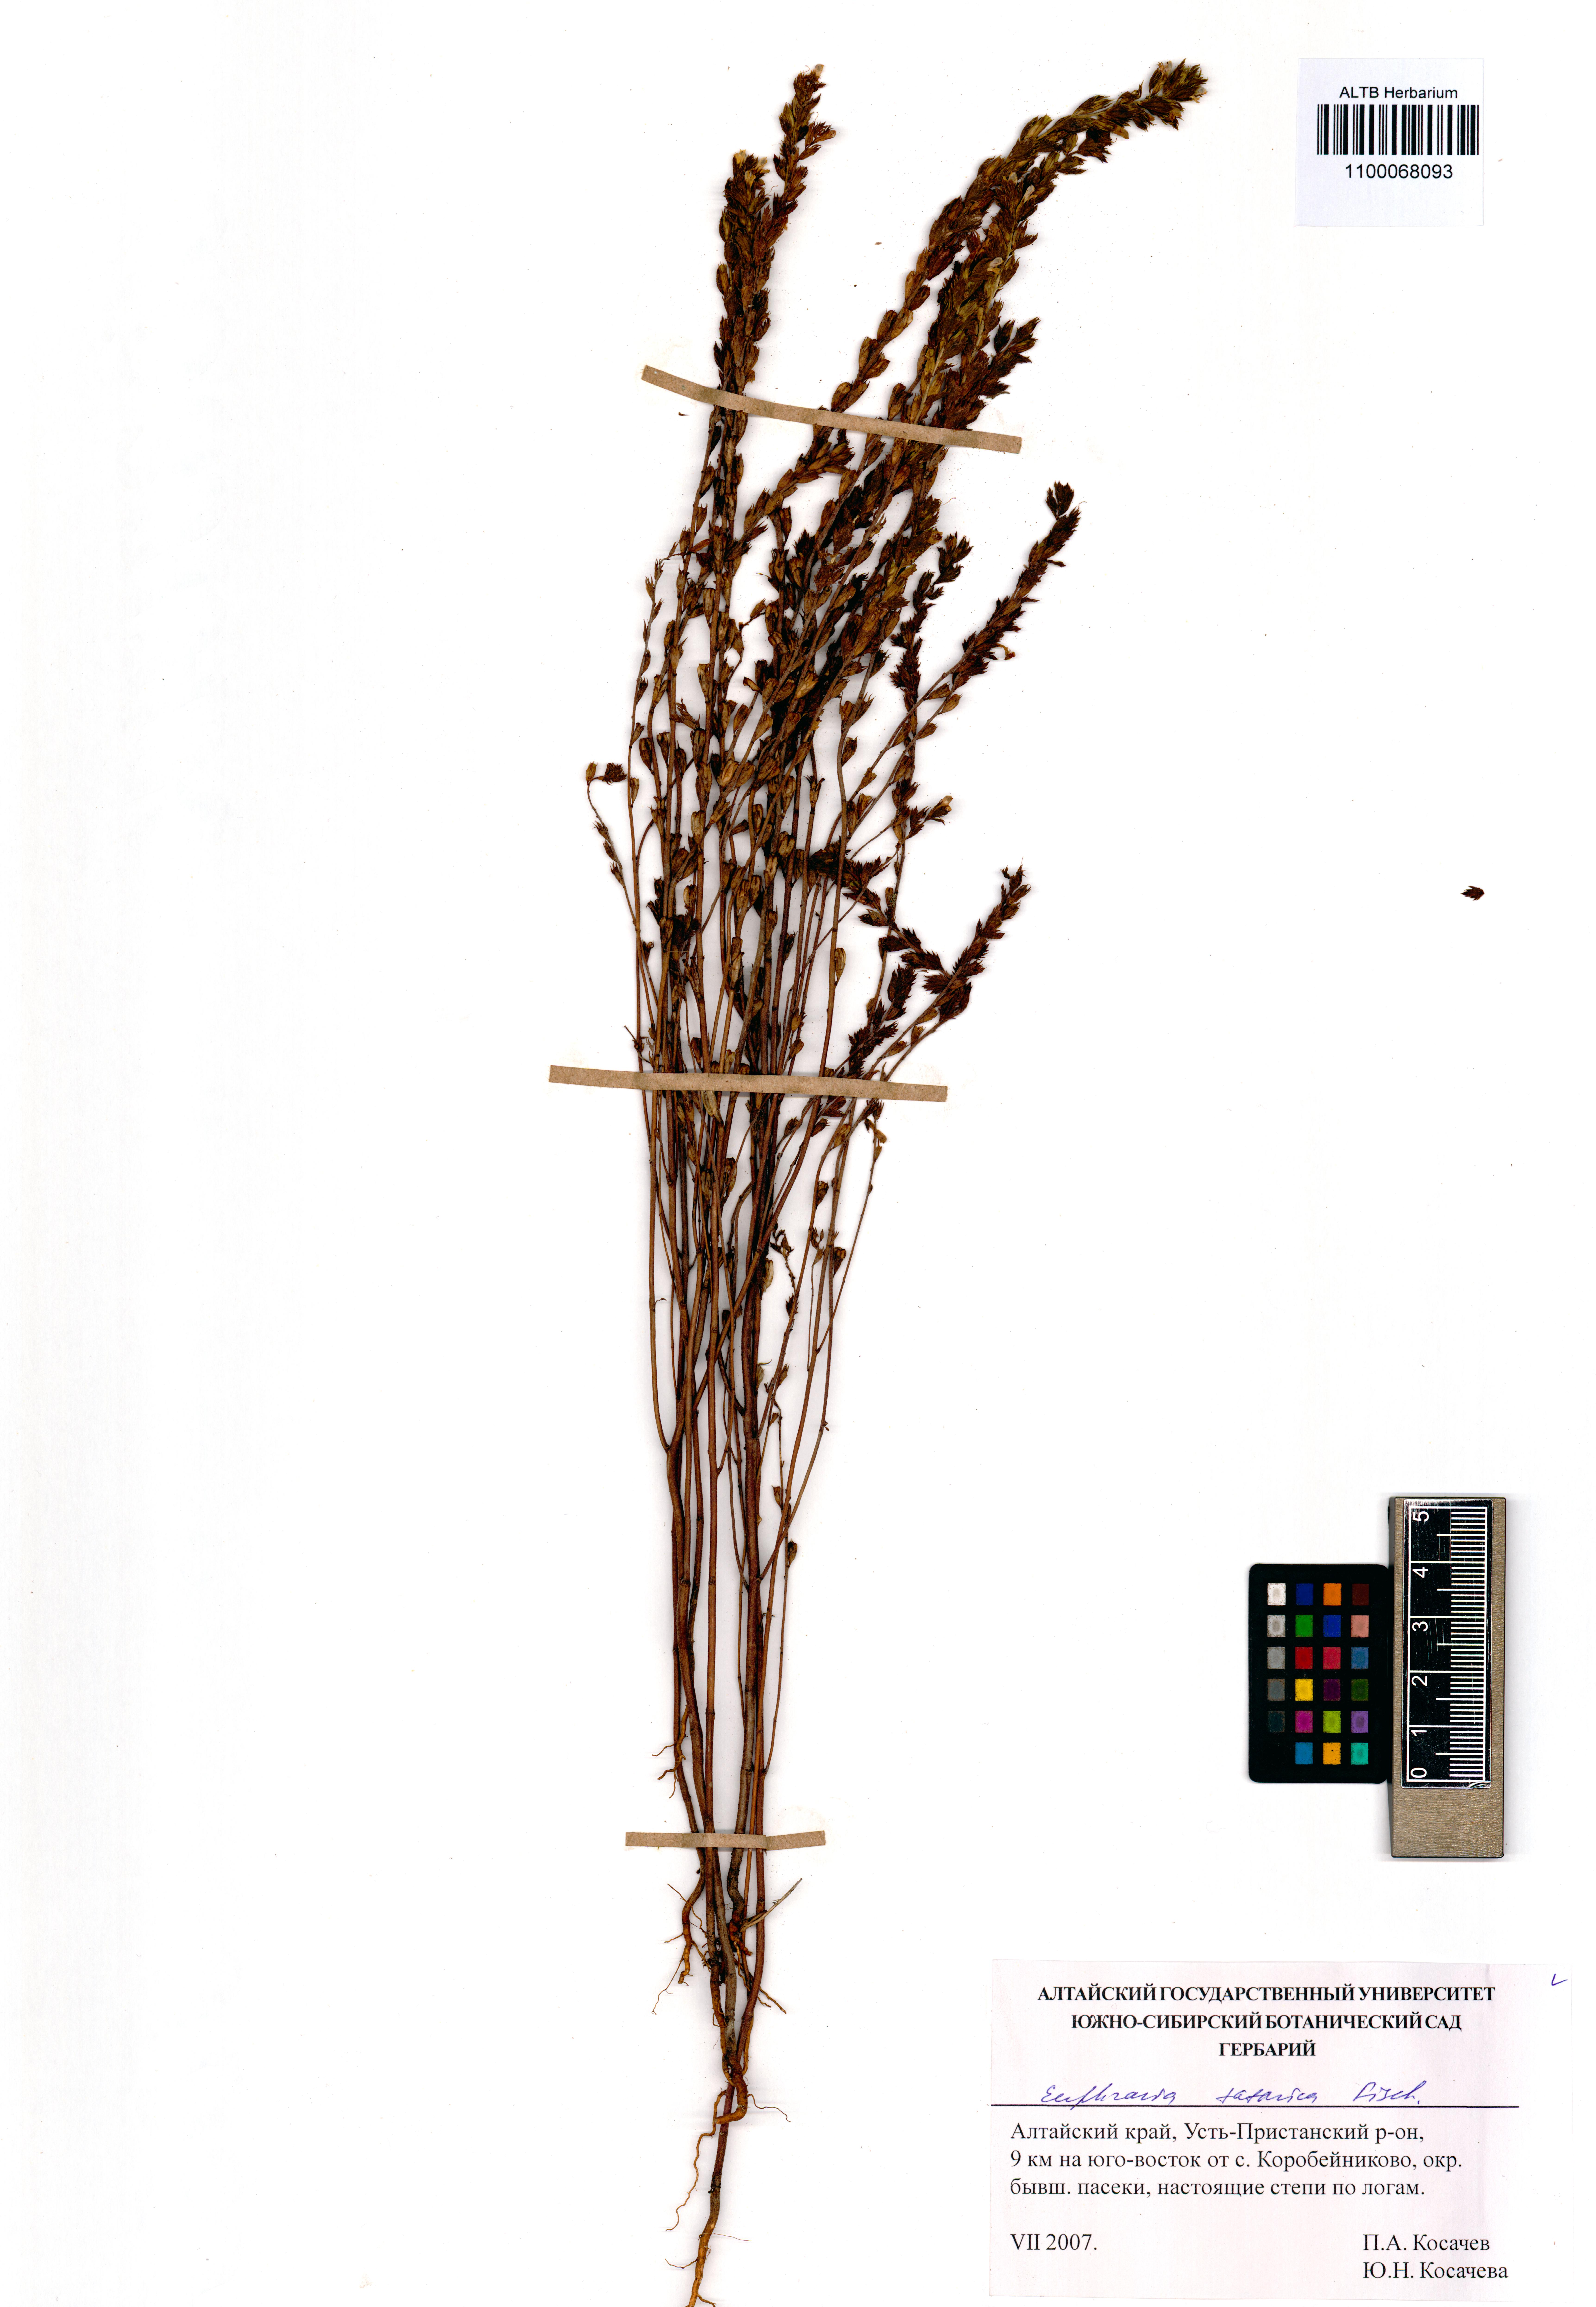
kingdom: Plantae
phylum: Tracheophyta
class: Magnoliopsida
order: Lamiales
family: Orobanchaceae
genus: Euphrasia
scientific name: Euphrasia pectinata
